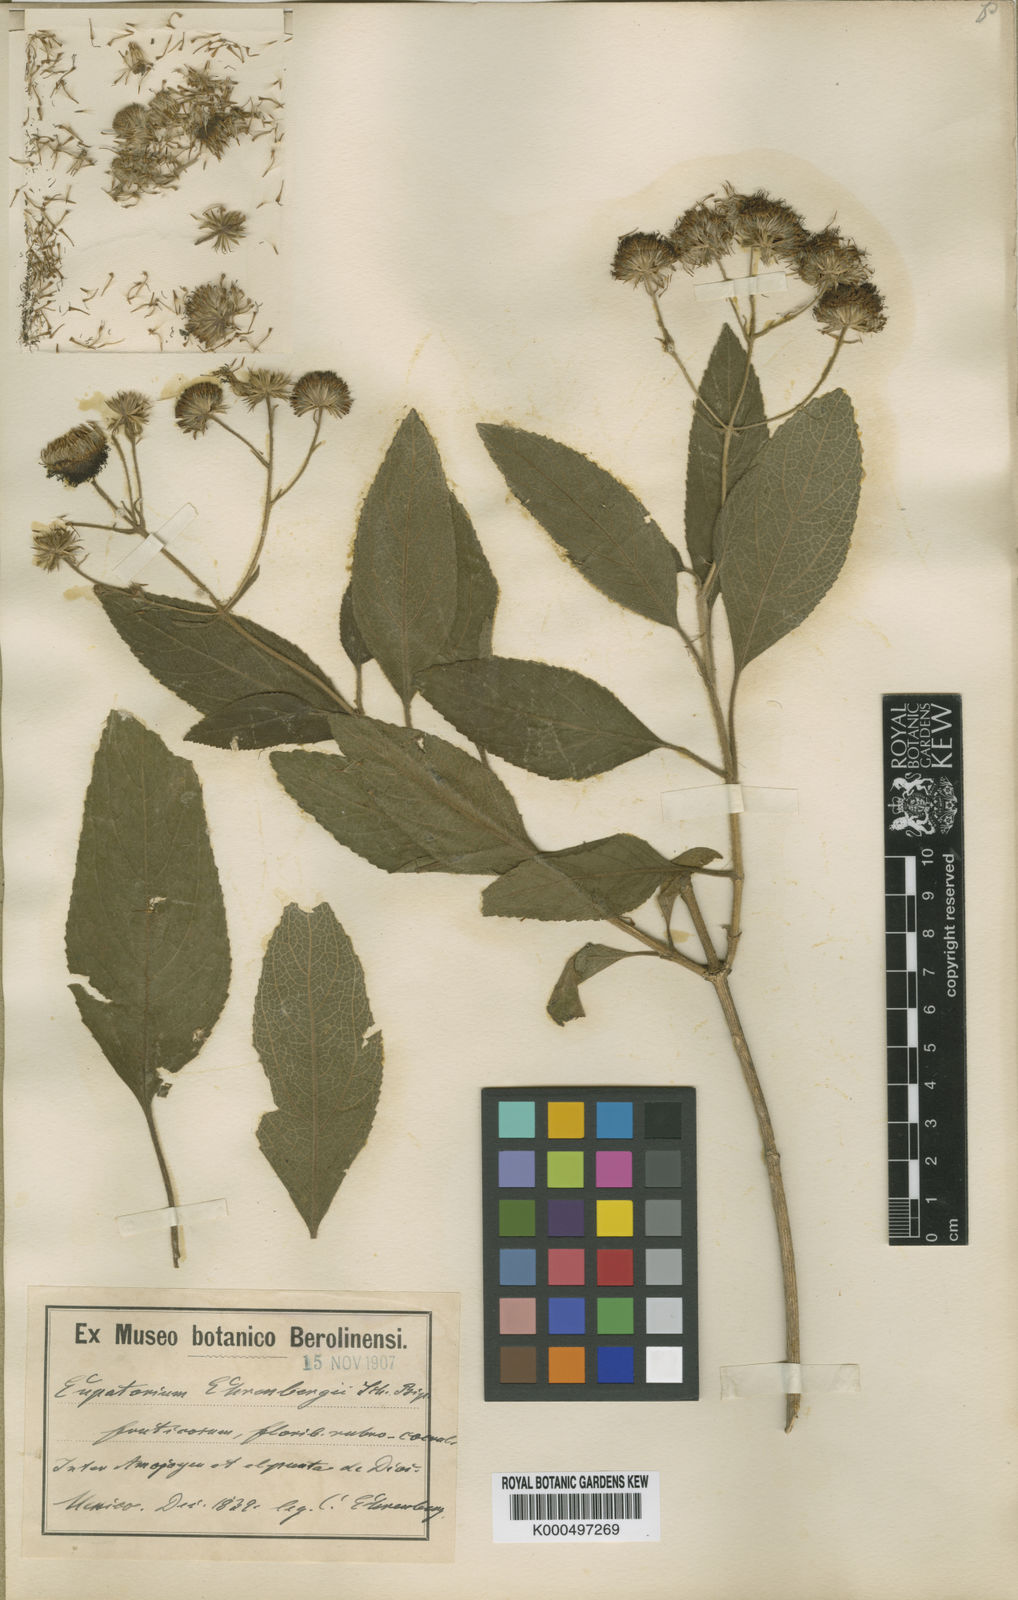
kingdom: Plantae
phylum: Tracheophyta
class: Magnoliopsida
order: Asterales
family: Asteraceae
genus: Bartlettina
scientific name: Bartlettina ehrenbergii
